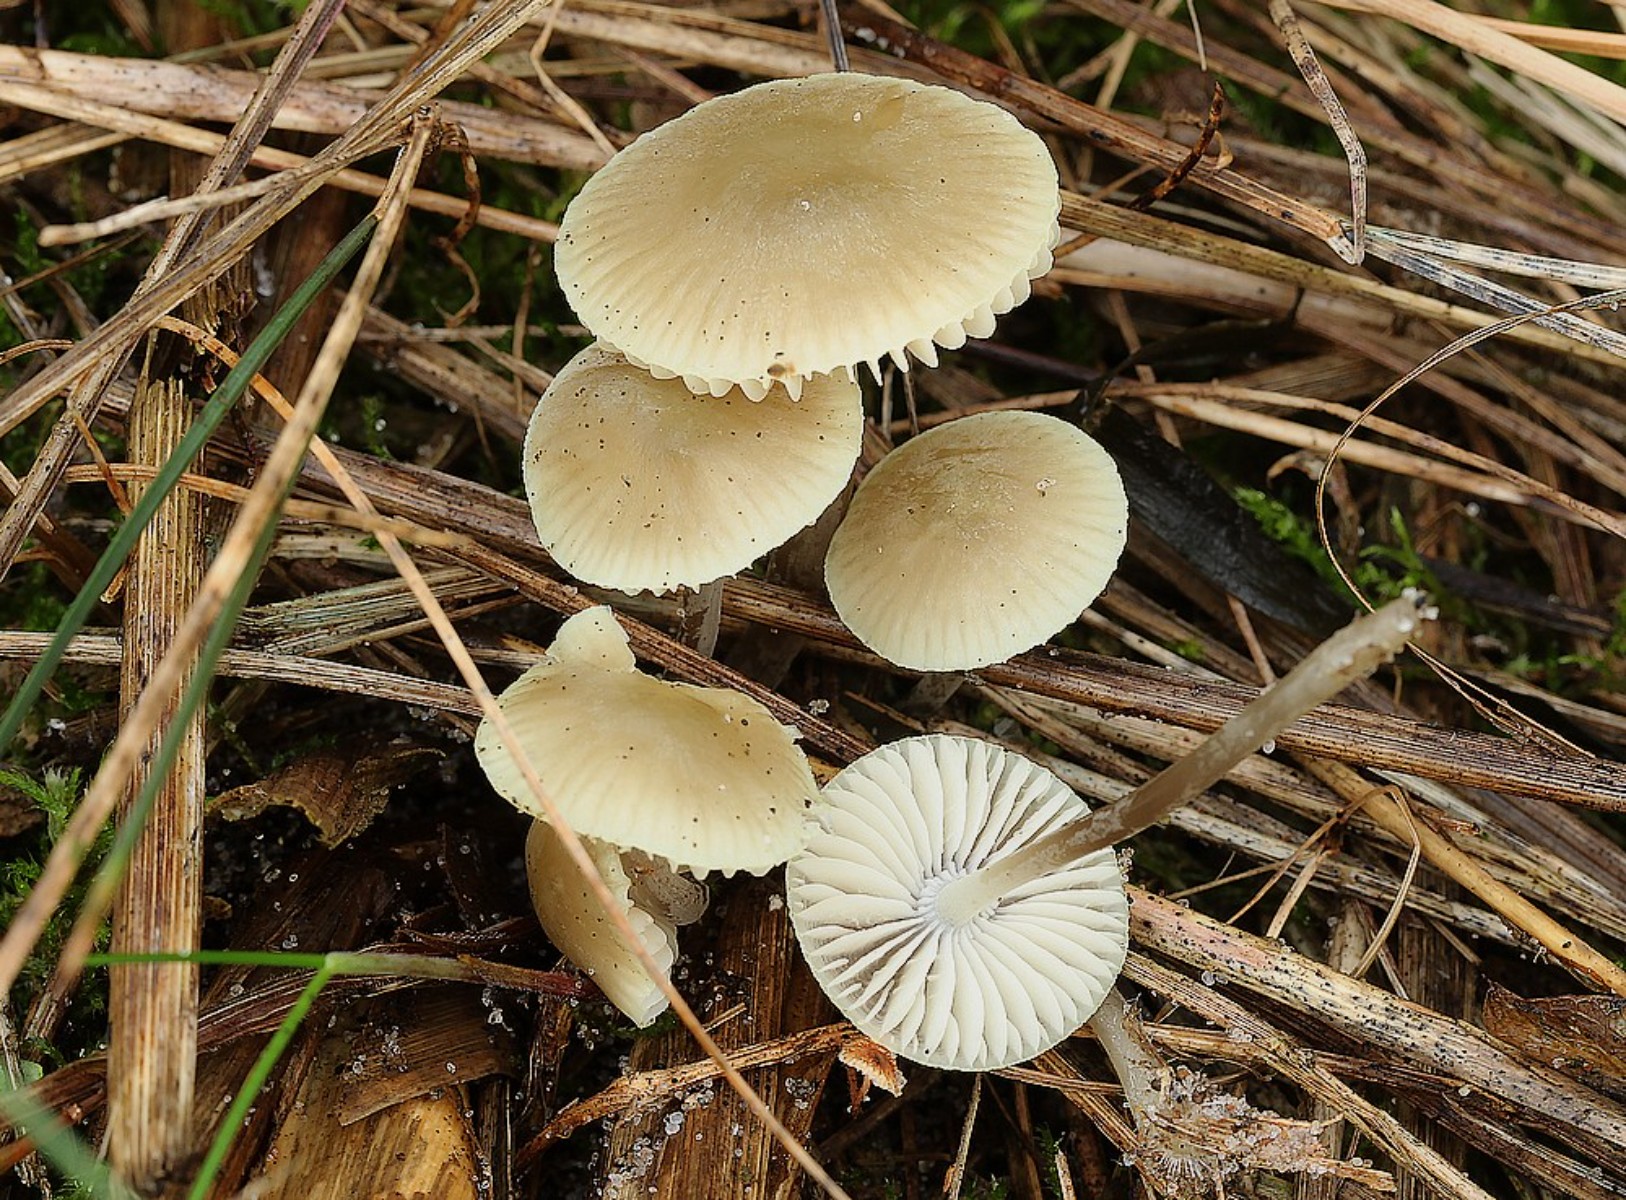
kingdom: Fungi
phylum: Basidiomycota
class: Agaricomycetes
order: Agaricales
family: Mycenaceae
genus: Mycena
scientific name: Mycena chlorantha
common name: klit-huesvamp
